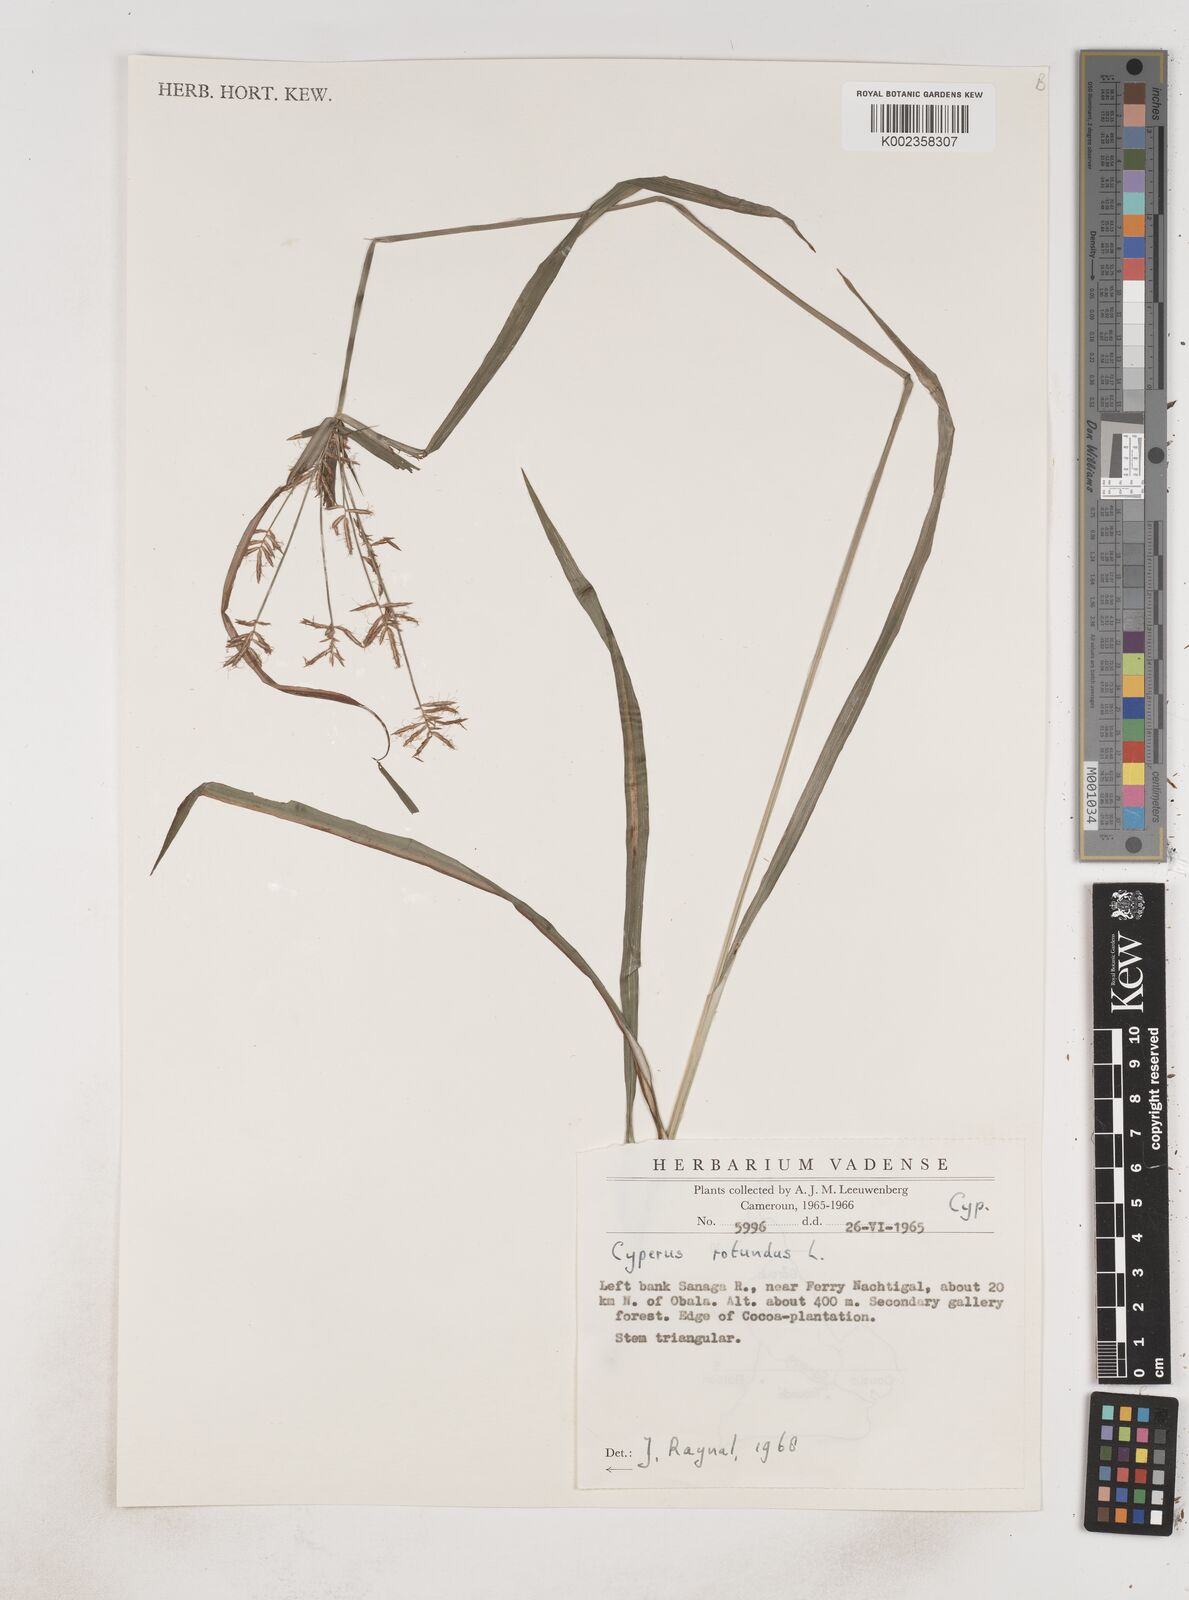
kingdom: Plantae
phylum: Tracheophyta
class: Liliopsida
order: Poales
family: Cyperaceae
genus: Cyperus
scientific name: Cyperus rotundus
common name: Nutgrass
